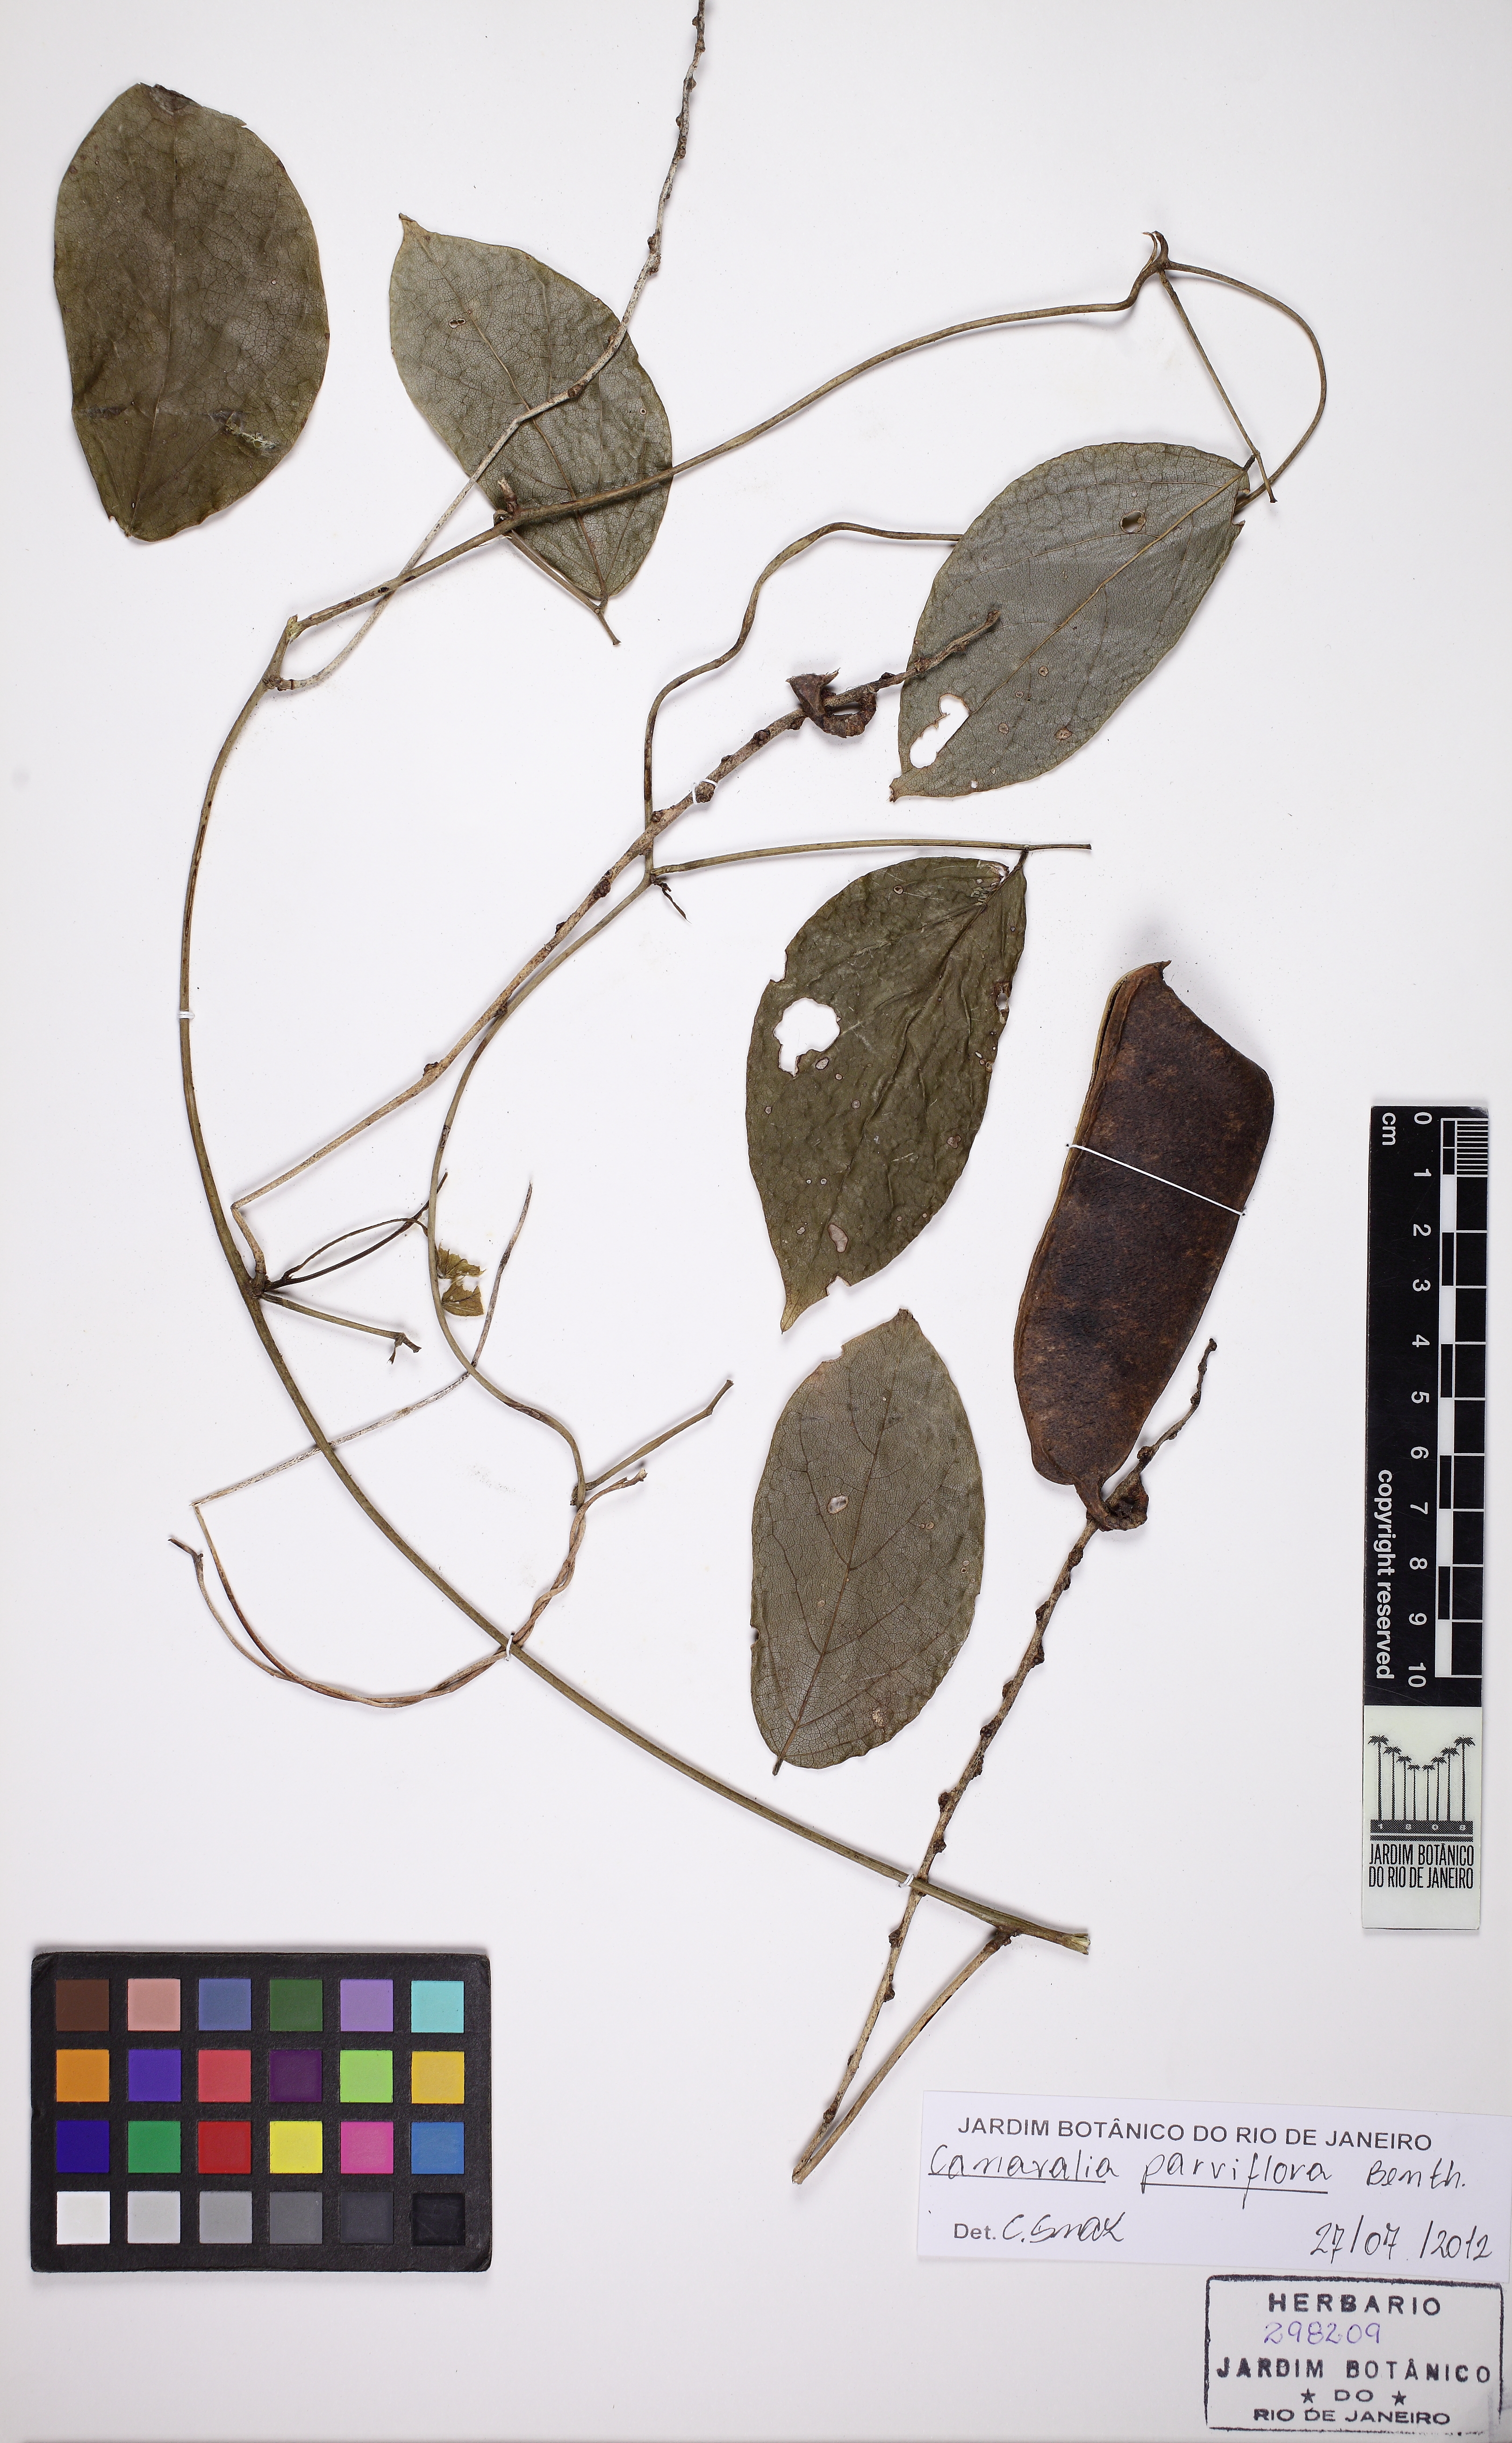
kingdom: Plantae
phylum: Tracheophyta
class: Magnoliopsida
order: Fabales
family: Fabaceae
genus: Canavalia
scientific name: Canavalia parviflora
